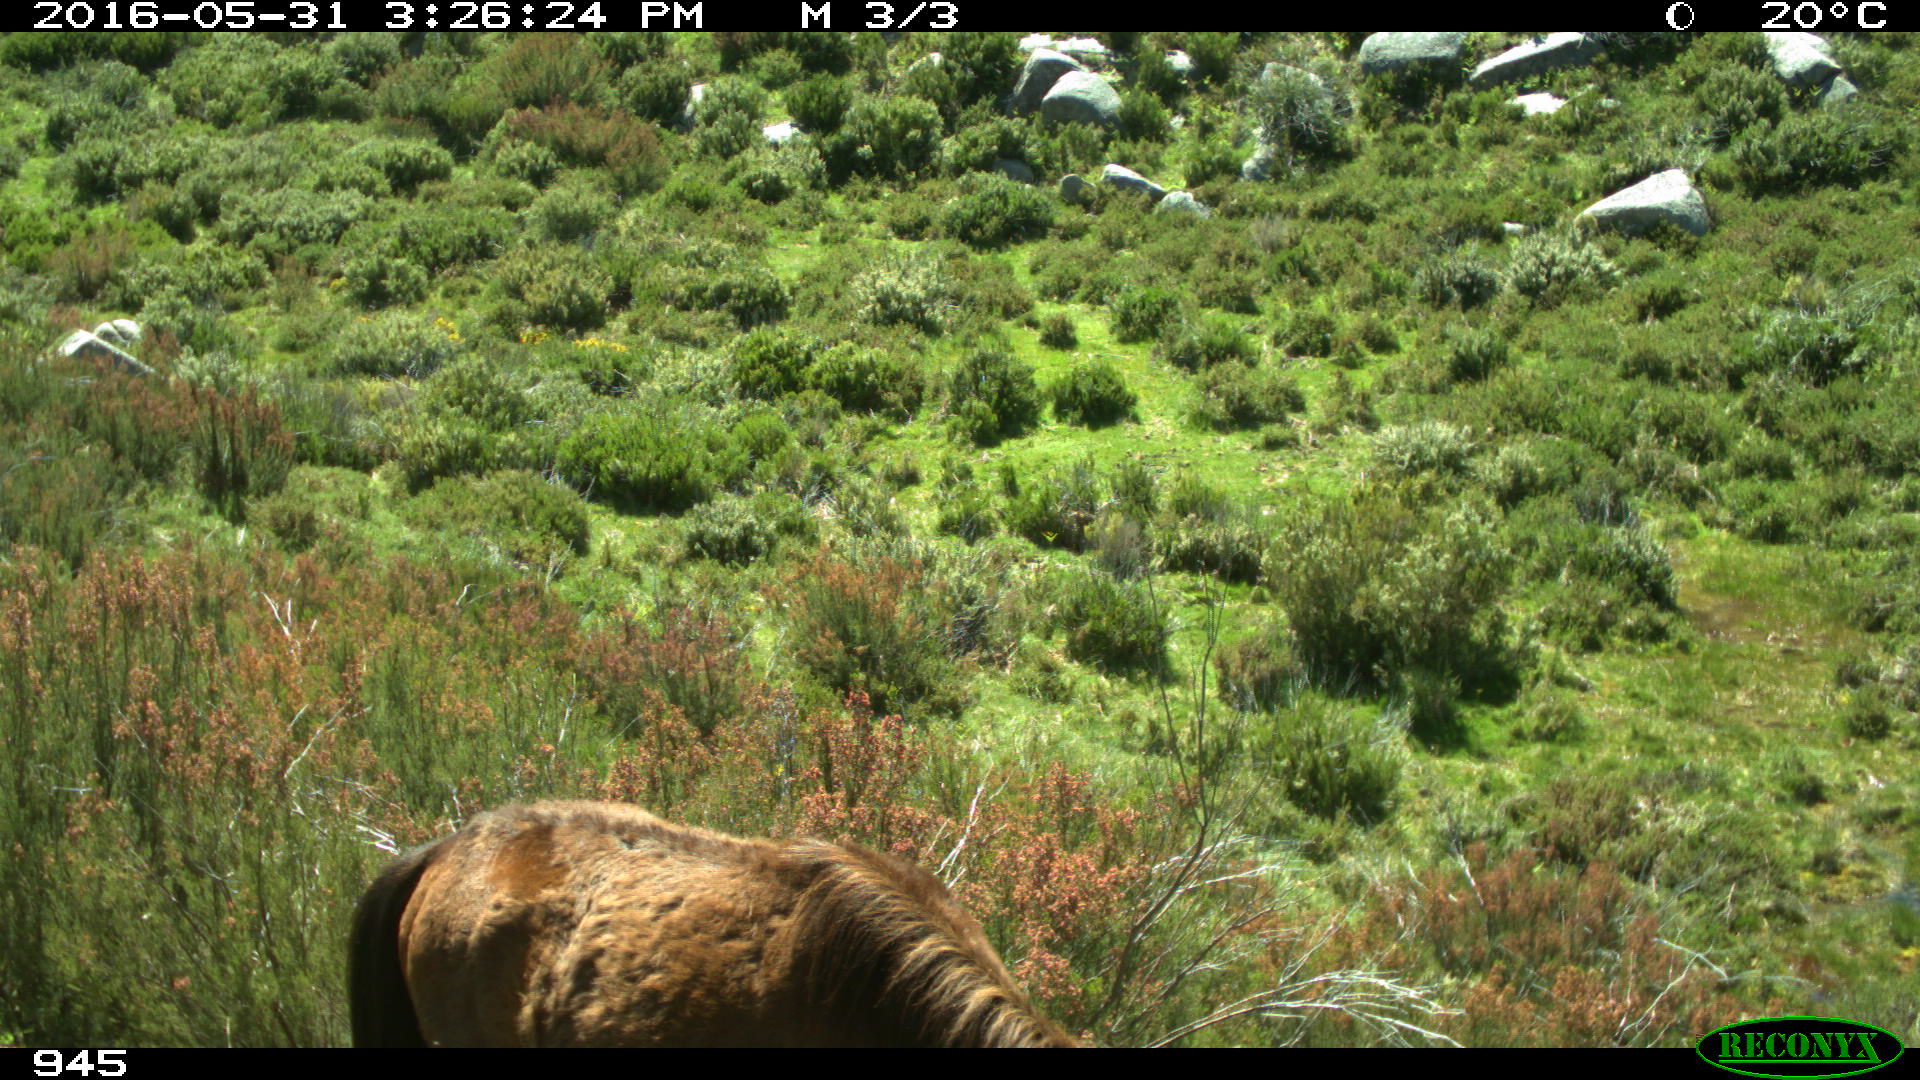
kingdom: Animalia
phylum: Chordata
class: Mammalia
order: Perissodactyla
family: Equidae
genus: Equus
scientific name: Equus caballus
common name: Horse
